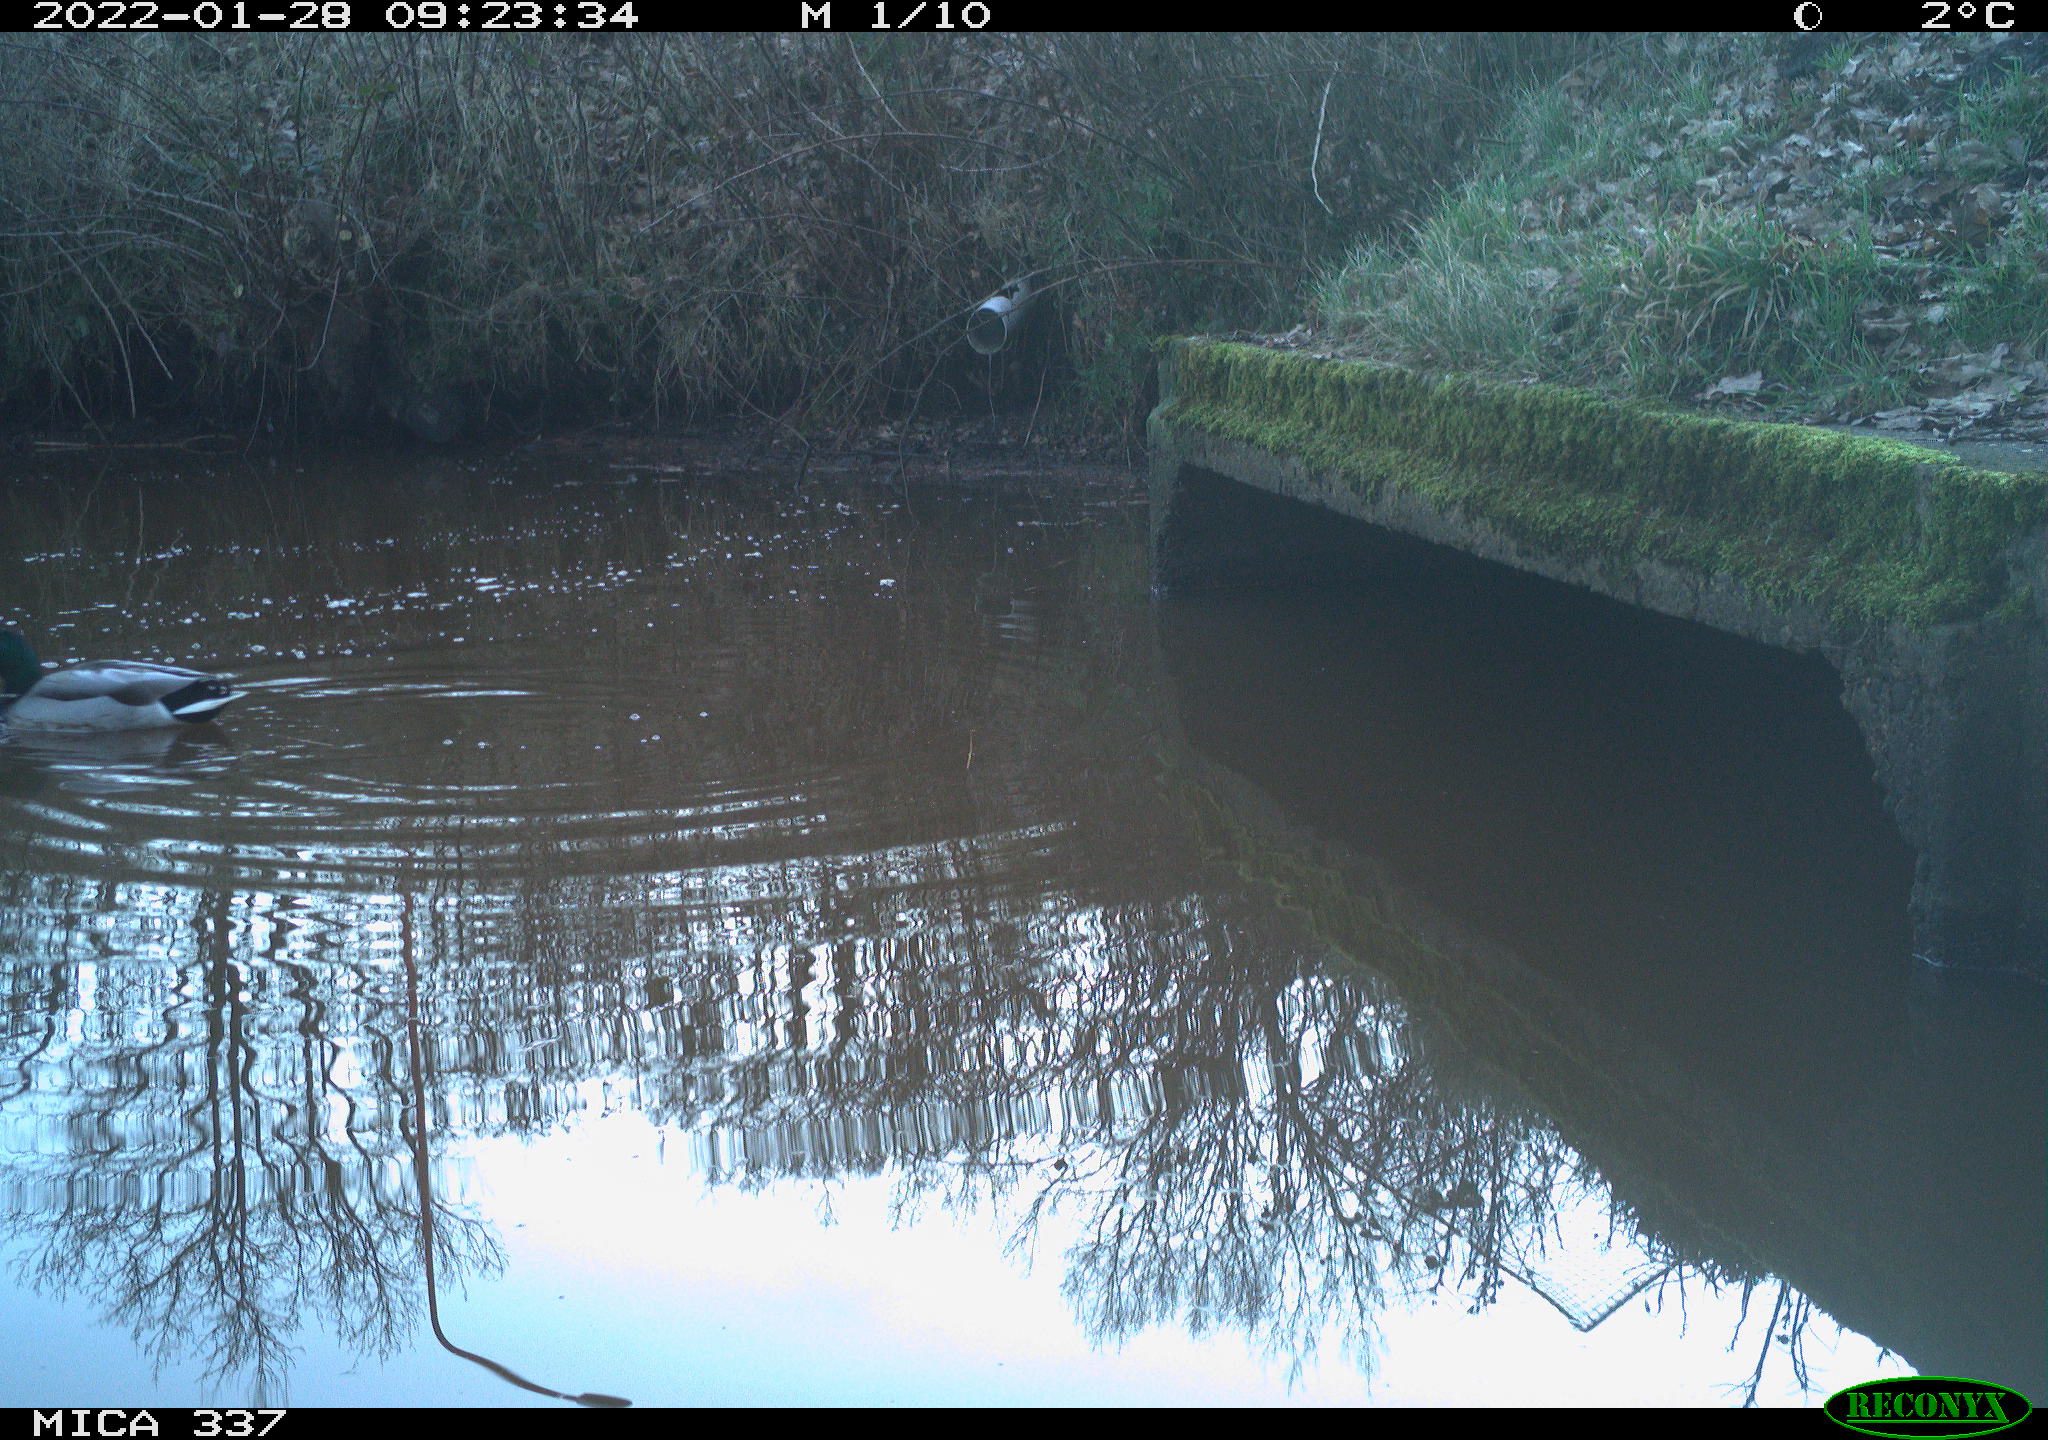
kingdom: Animalia
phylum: Chordata
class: Aves
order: Anseriformes
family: Anatidae
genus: Anas
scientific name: Anas platyrhynchos
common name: Mallard
